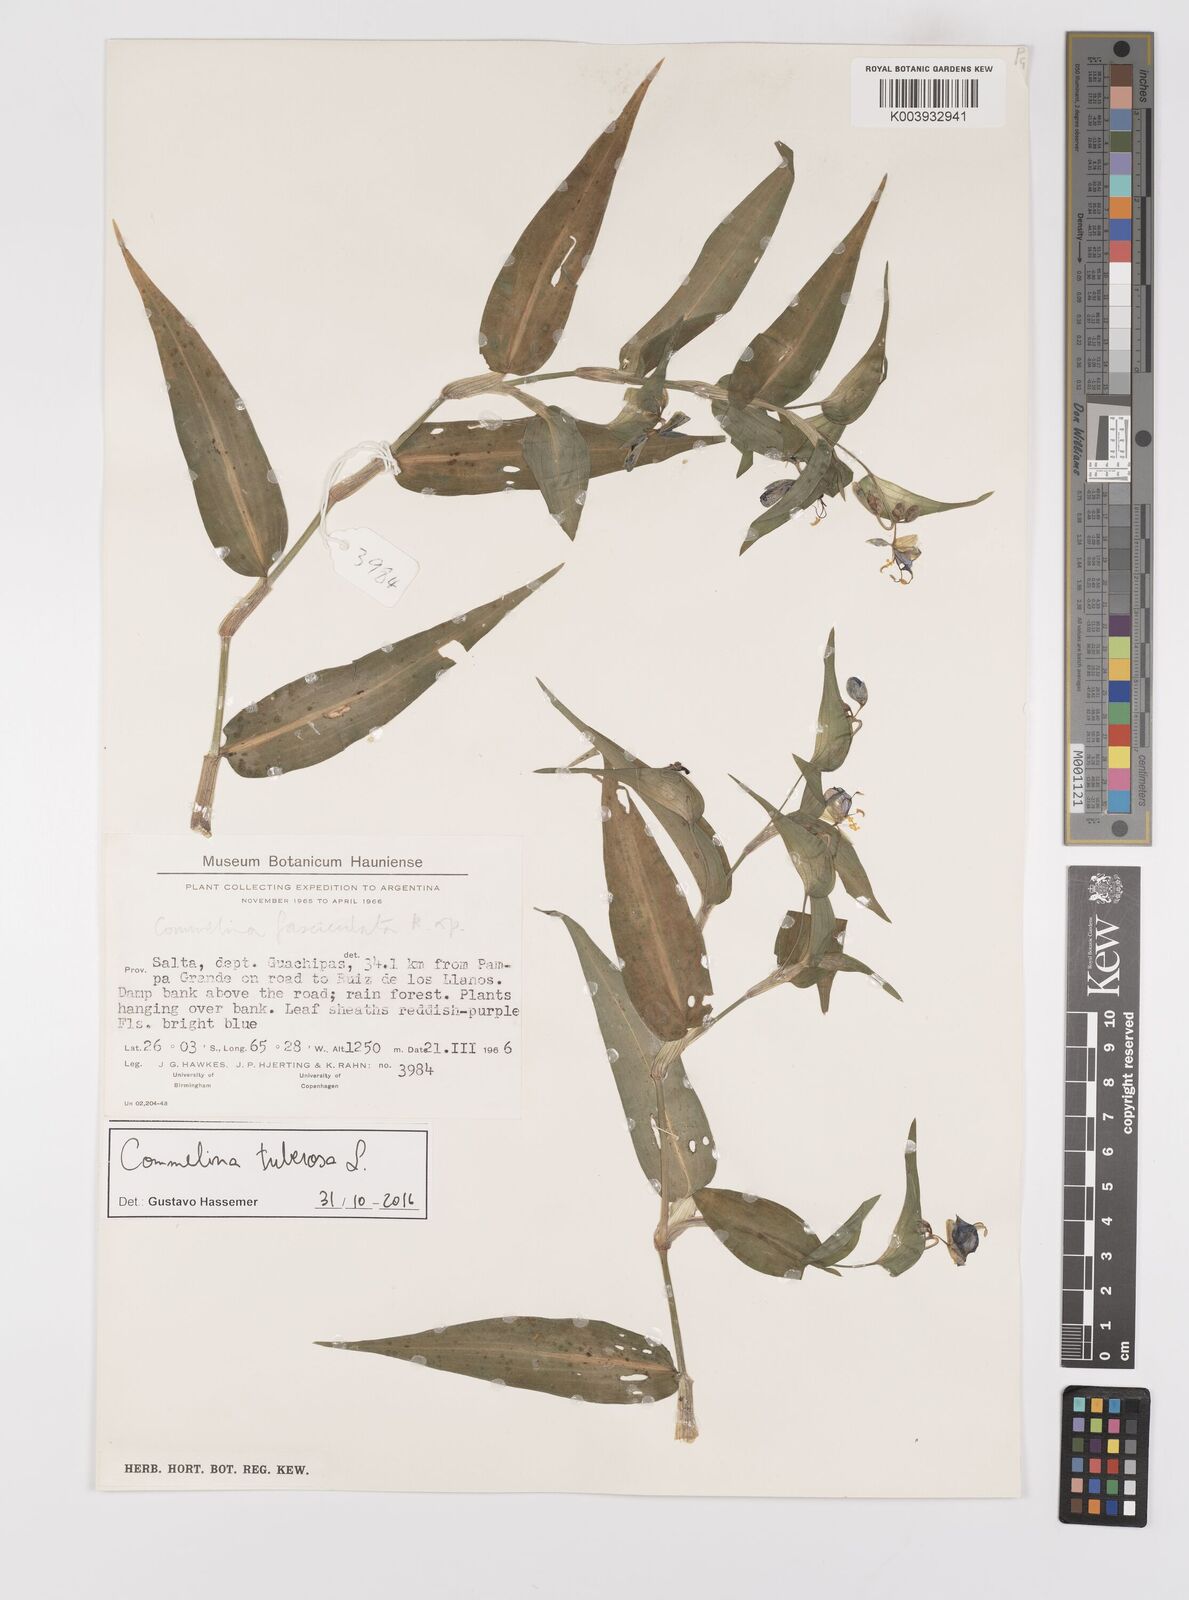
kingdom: Plantae
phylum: Tracheophyta
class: Liliopsida
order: Commelinales
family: Commelinaceae
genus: Commelina
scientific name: Commelina tuberosa
